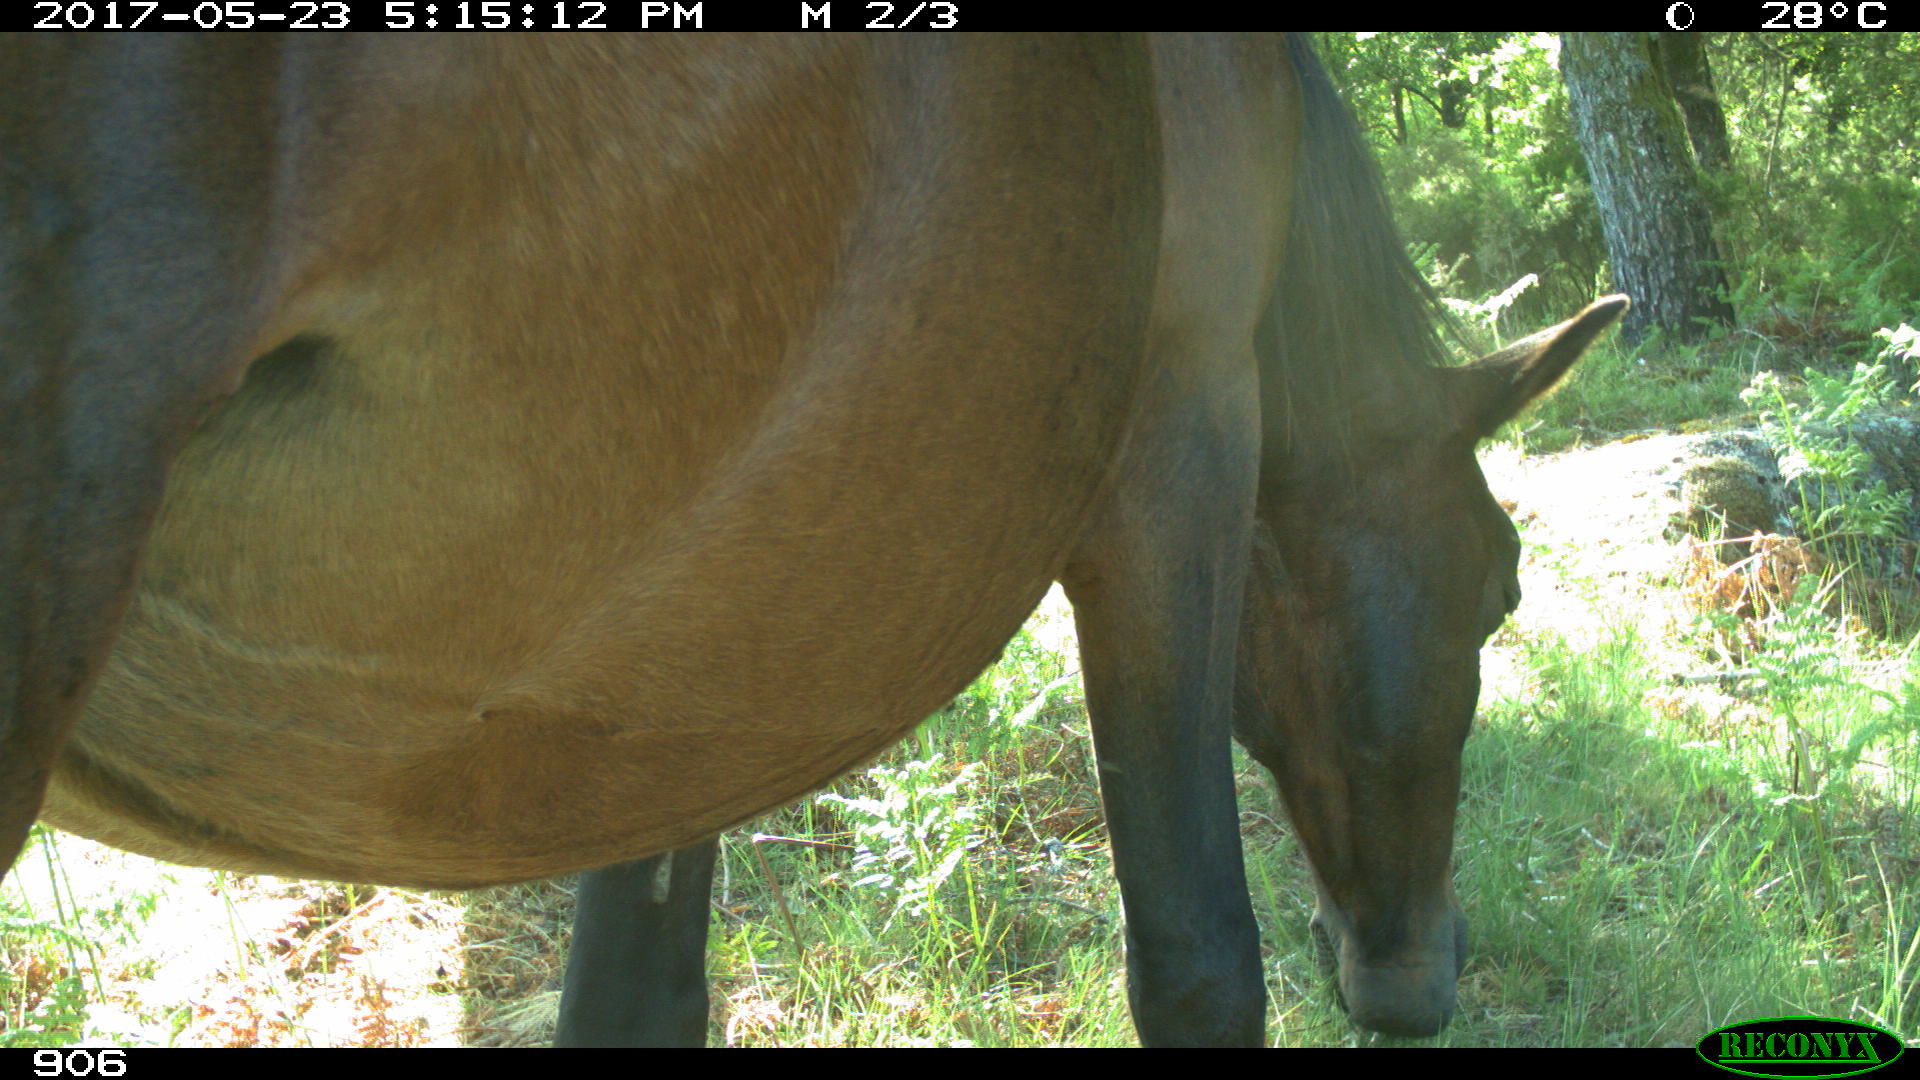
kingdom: Animalia
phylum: Chordata
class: Mammalia
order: Perissodactyla
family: Equidae
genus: Equus
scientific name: Equus caballus
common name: Horse
